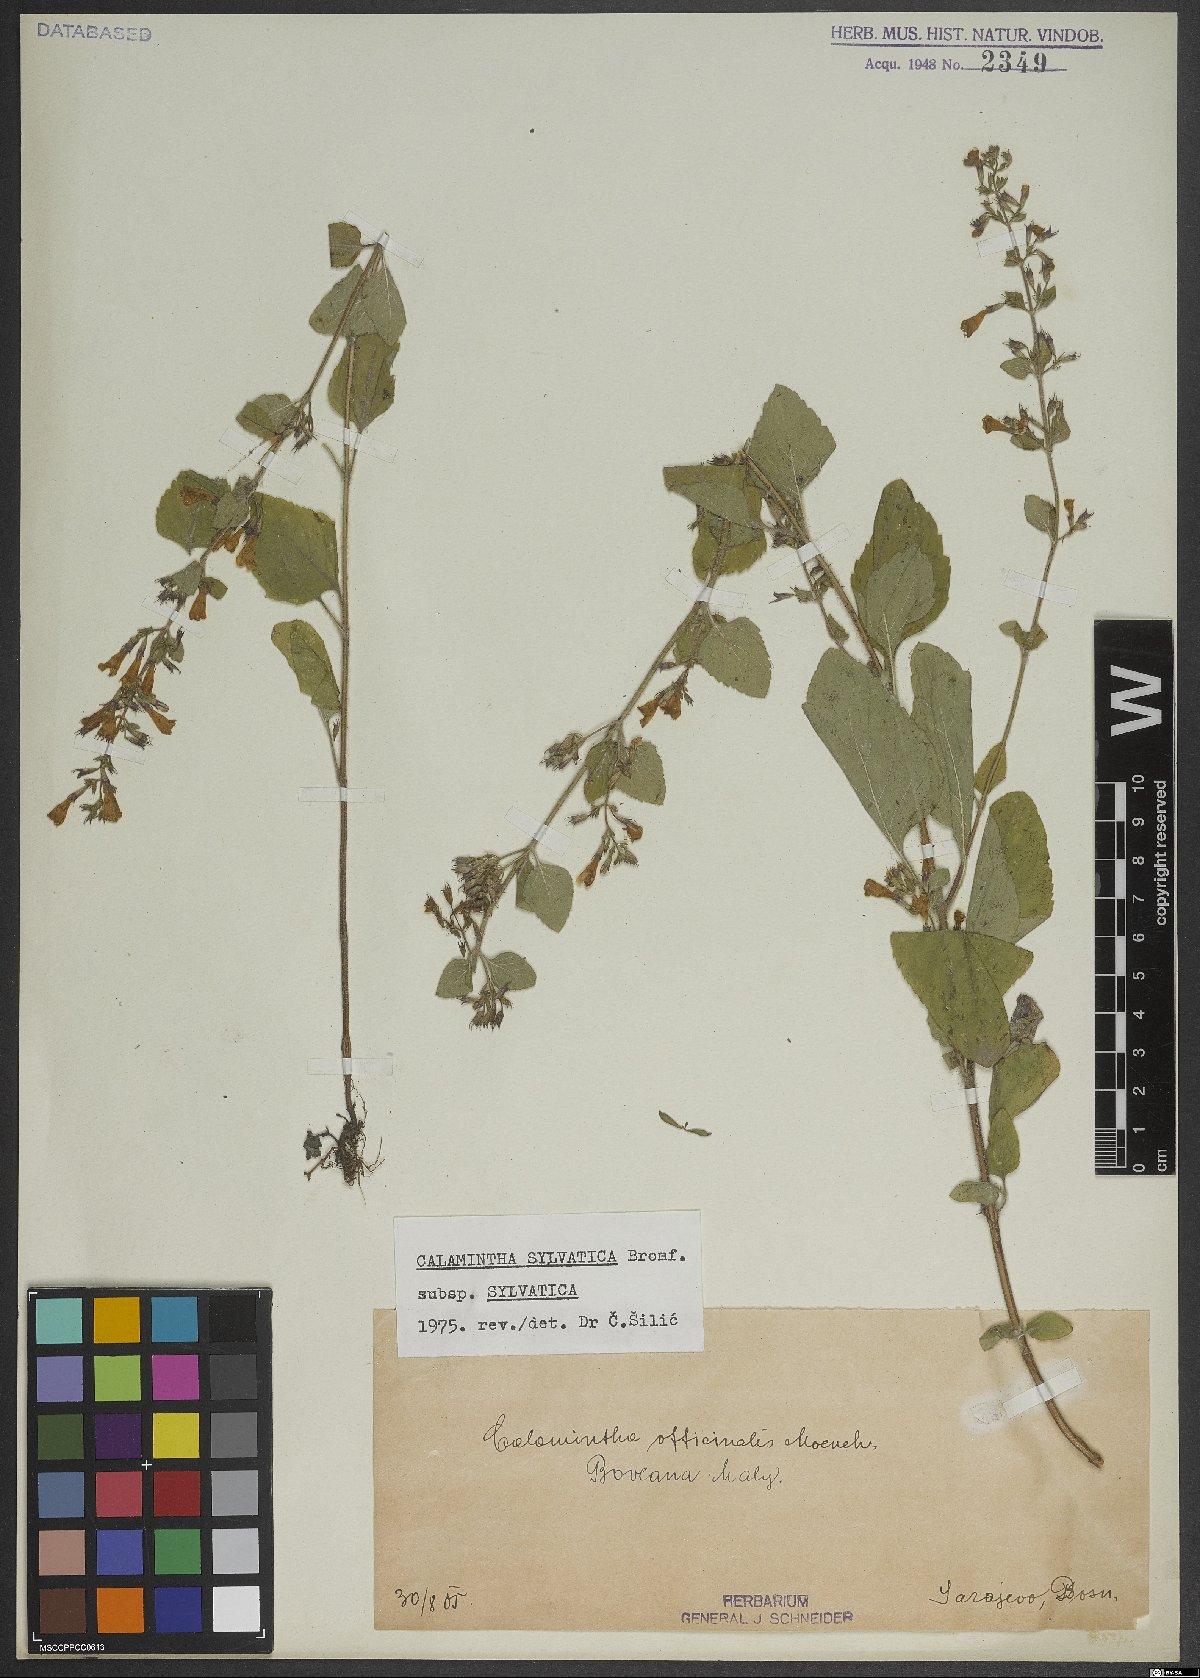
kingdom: Plantae
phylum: Tracheophyta
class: Magnoliopsida
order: Lamiales
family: Lamiaceae
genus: Clinopodium
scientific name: Clinopodium menthifolium
